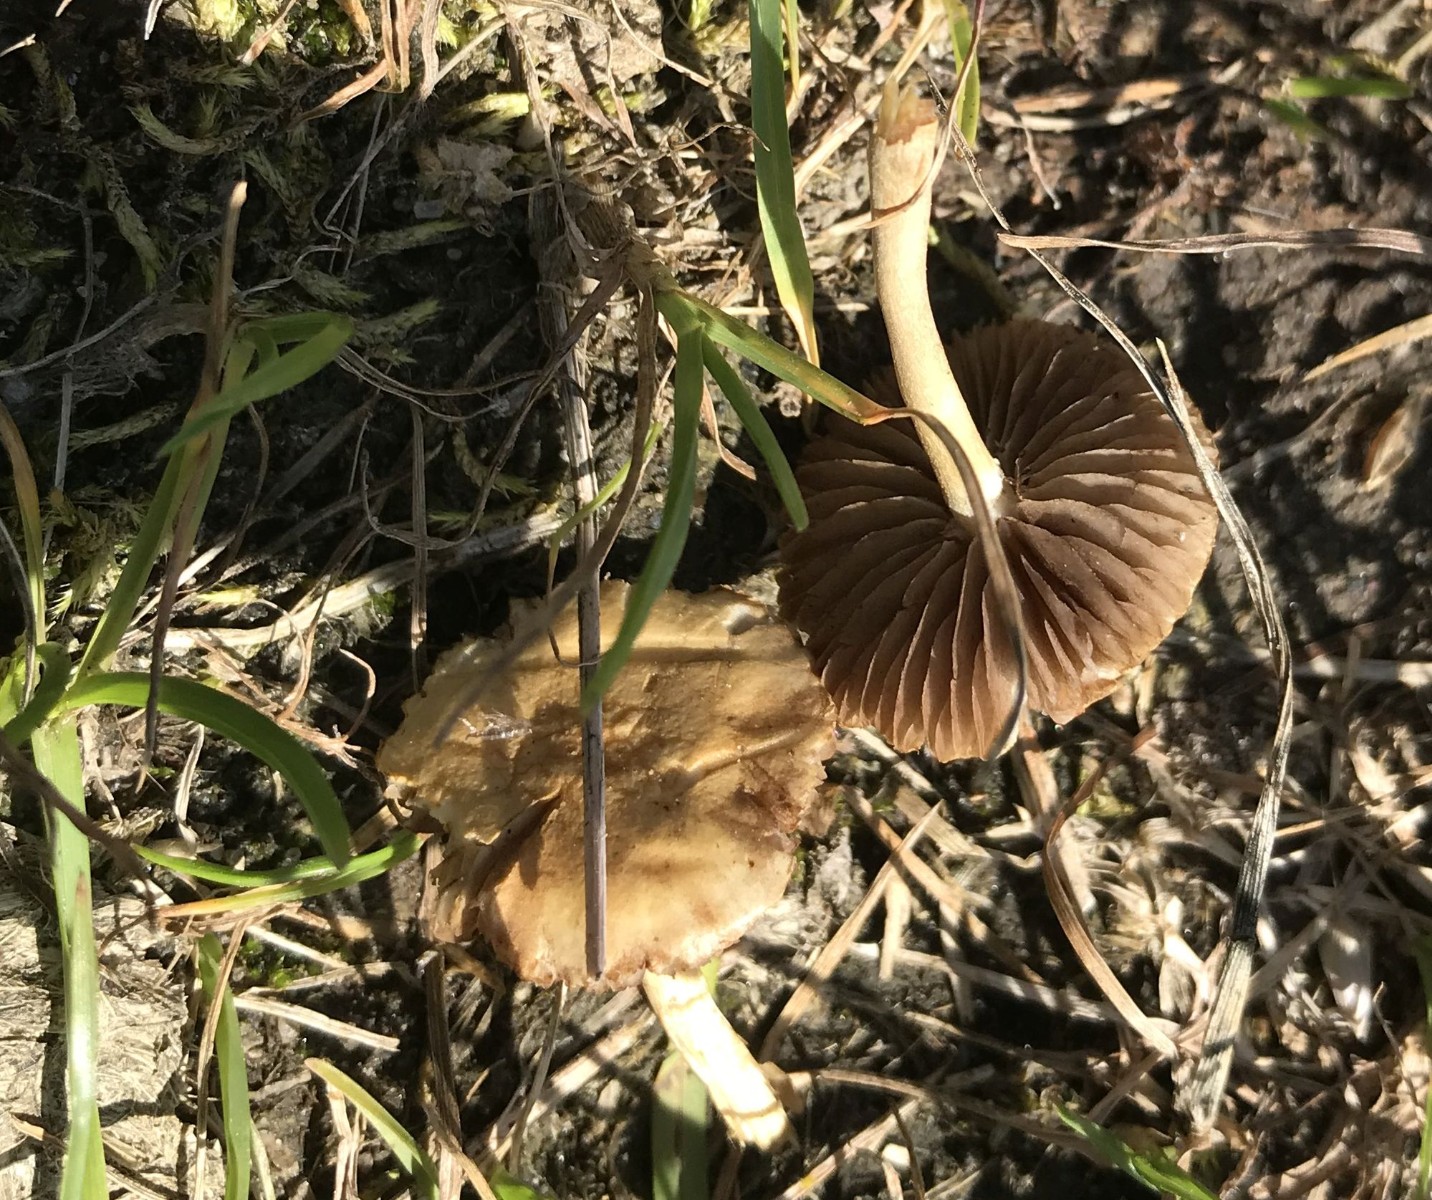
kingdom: Fungi
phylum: Basidiomycota
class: Agaricomycetes
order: Agaricales
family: Strophariaceae
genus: Agrocybe
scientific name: Agrocybe pediades
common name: almindelig agerhat
